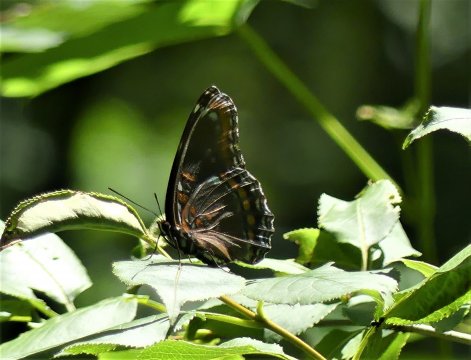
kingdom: Animalia
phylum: Arthropoda
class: Insecta
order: Lepidoptera
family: Nymphalidae
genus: Limenitis
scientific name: Limenitis arthemis
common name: Red-spotted Admiral
